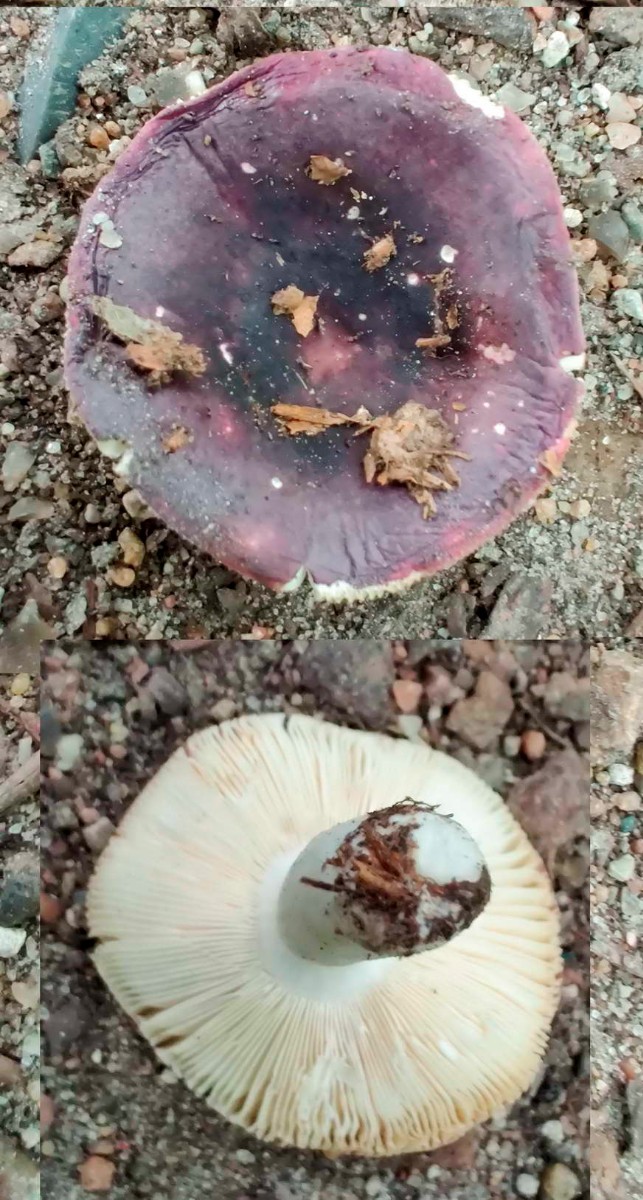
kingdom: Fungi
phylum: Basidiomycota
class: Agaricomycetes
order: Russulales
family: Russulaceae
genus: Russula
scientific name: Russula brunneoviolacea
